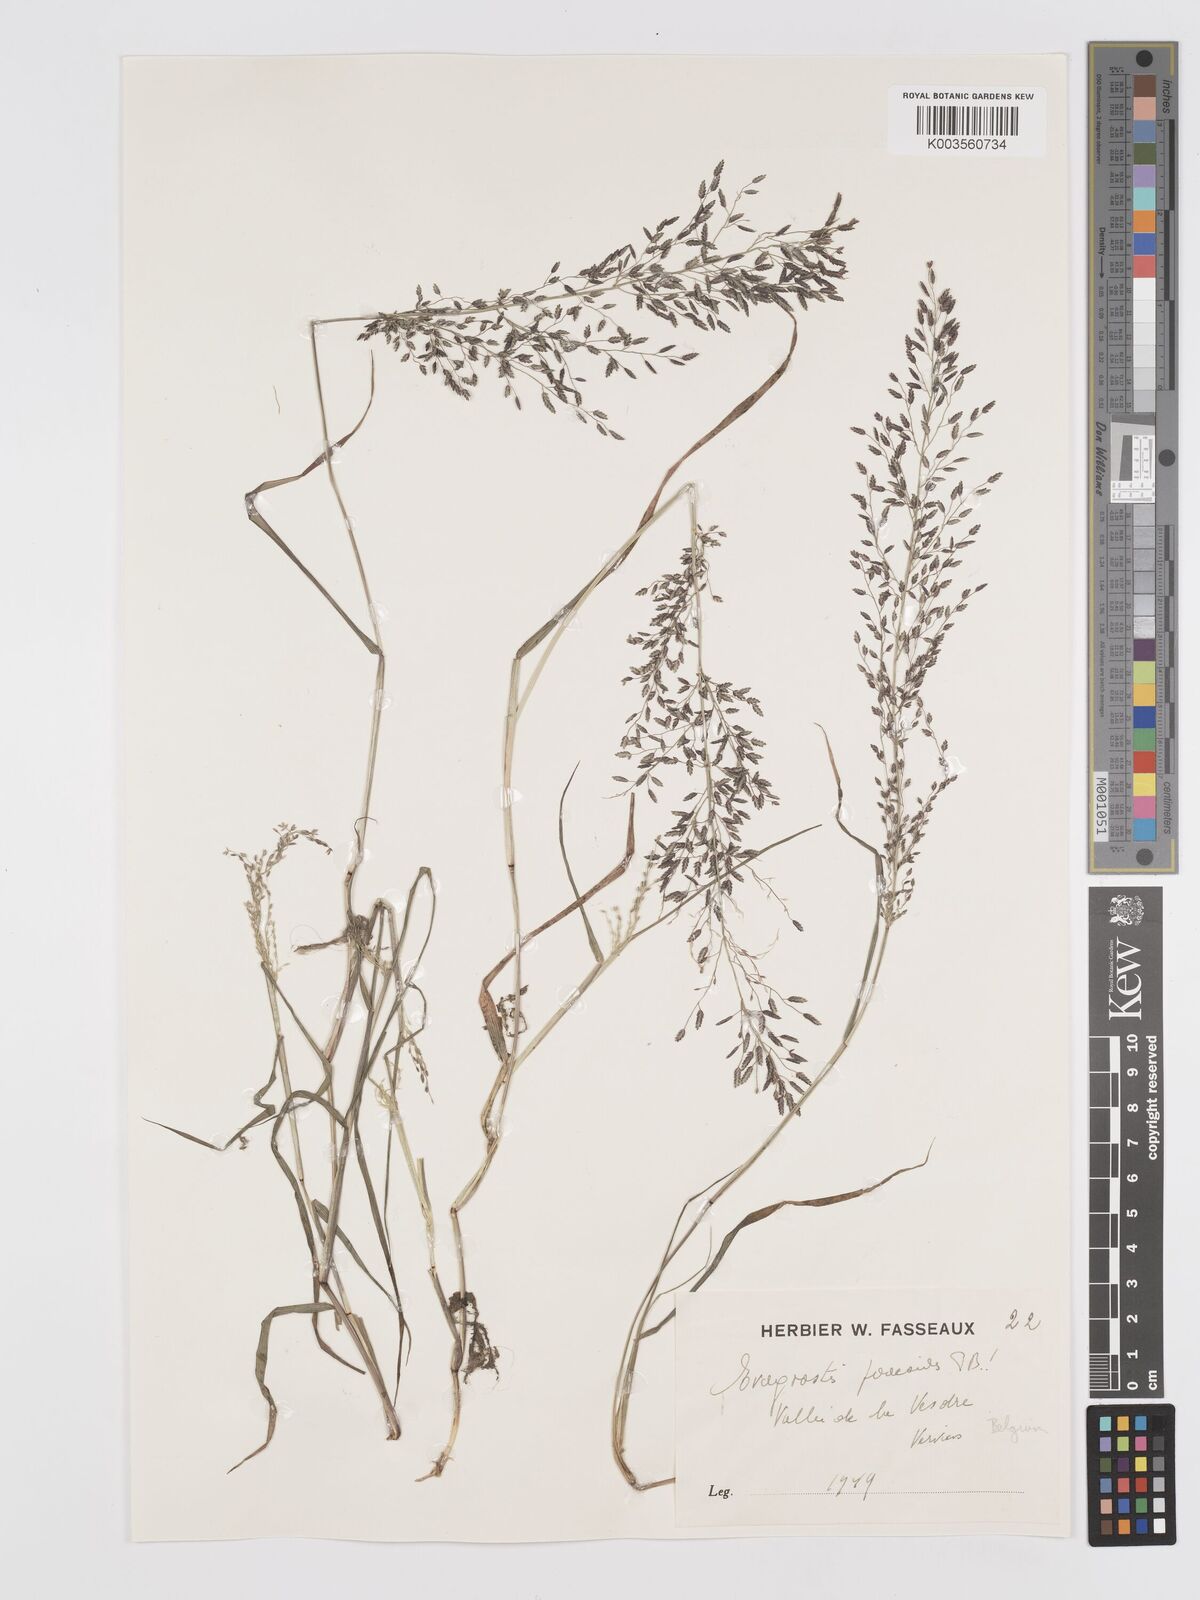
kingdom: Plantae
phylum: Tracheophyta
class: Liliopsida
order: Poales
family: Poaceae
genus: Eragrostis
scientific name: Eragrostis minor
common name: Small love-grass
